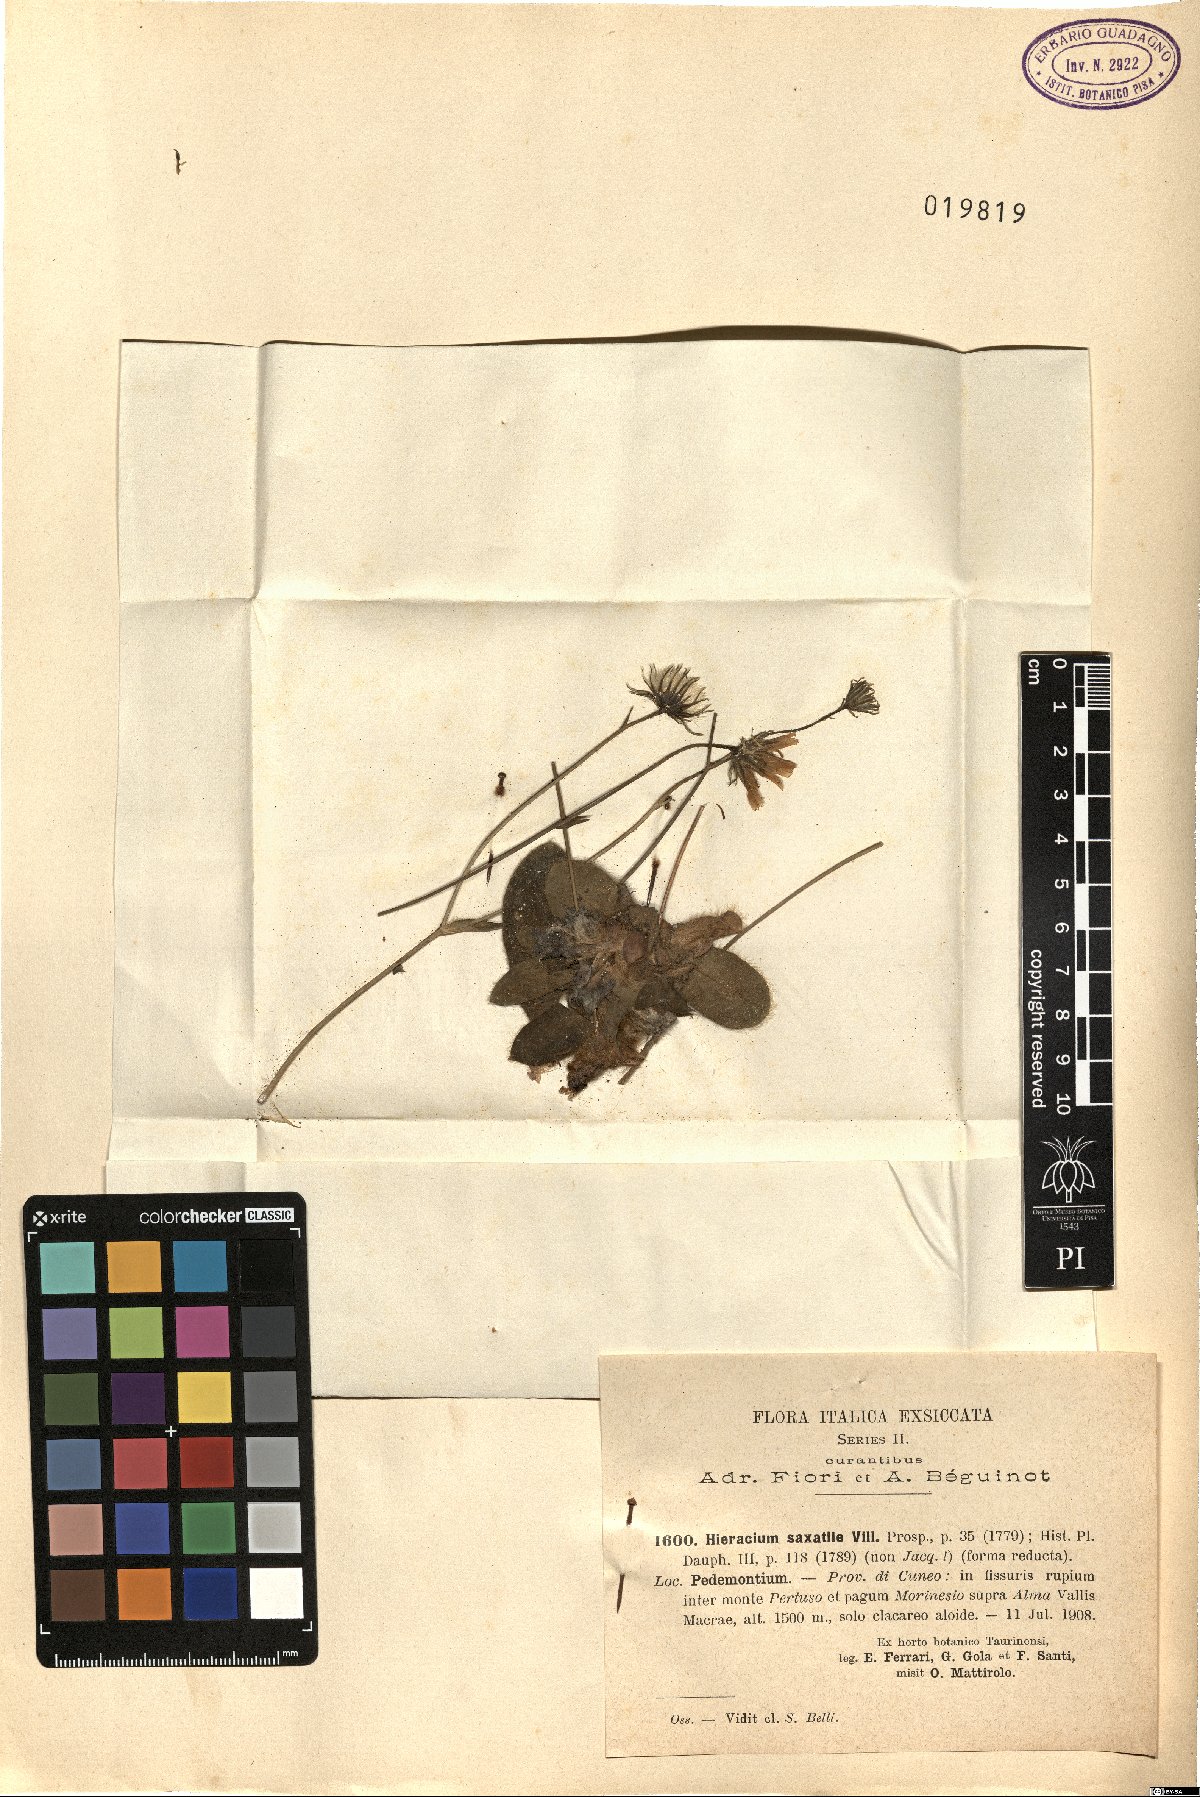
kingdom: Plantae
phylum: Tracheophyta
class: Magnoliopsida
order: Asterales
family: Asteraceae
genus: Hieracium
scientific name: Hieracium lawsonii
